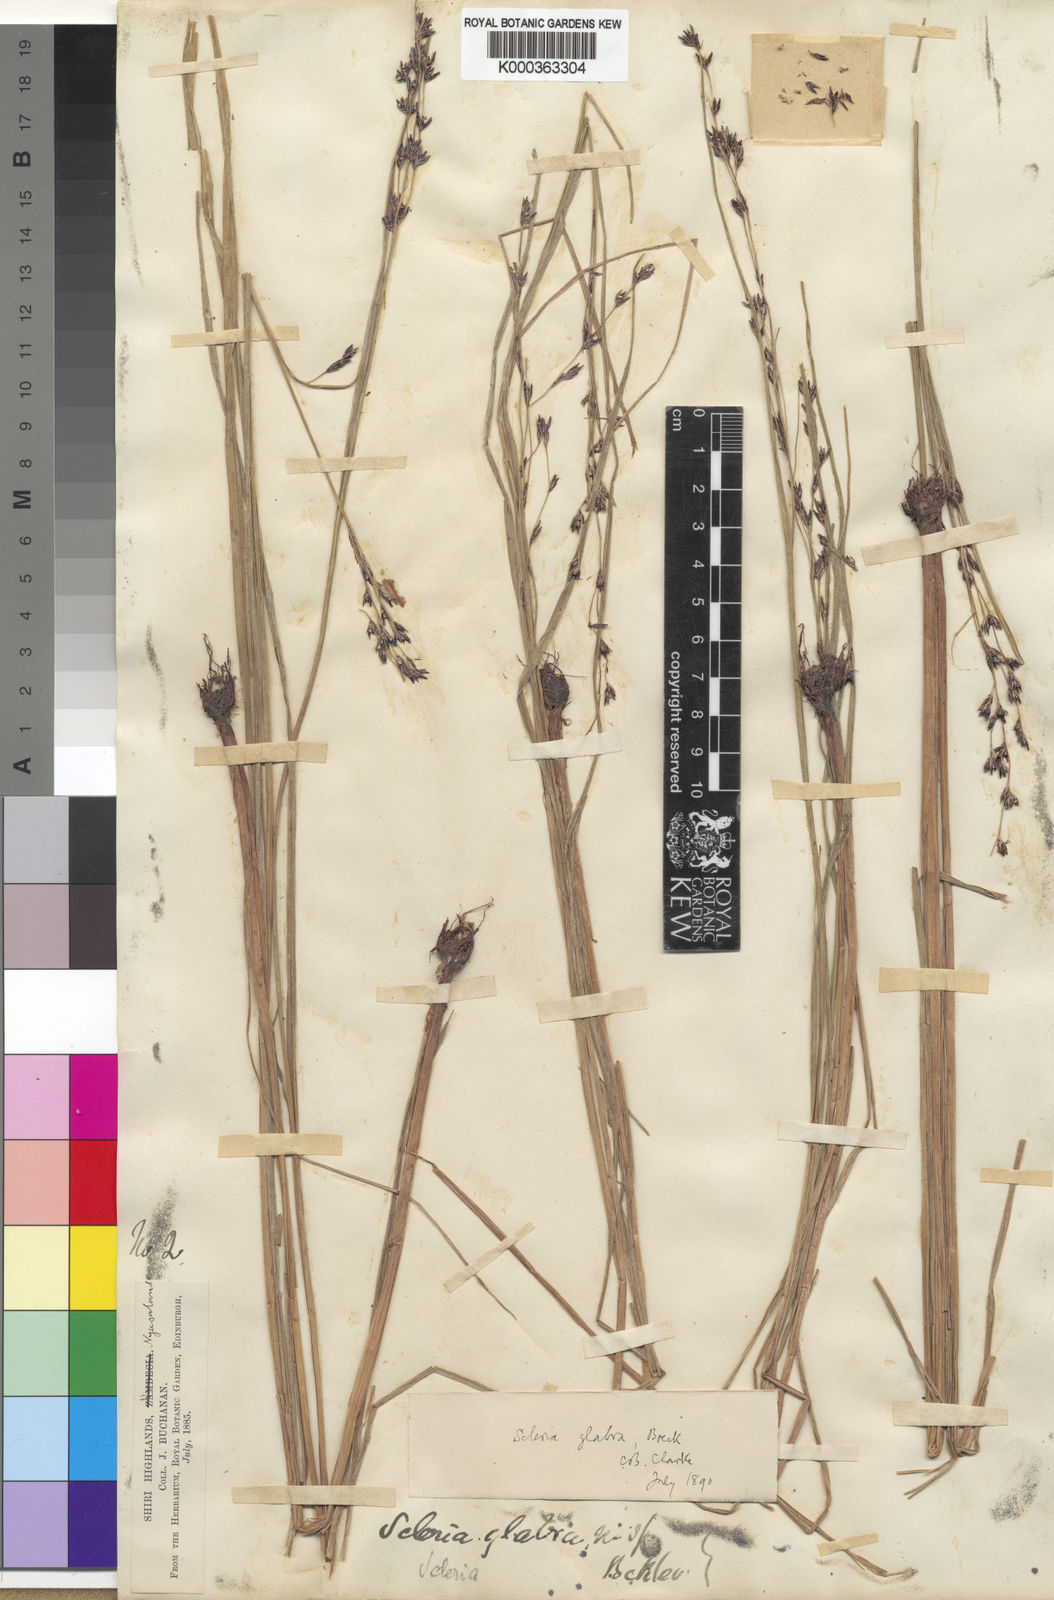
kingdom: Plantae
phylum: Tracheophyta
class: Liliopsida
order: Poales
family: Cyperaceae
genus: Scleria
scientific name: Scleria glabra
